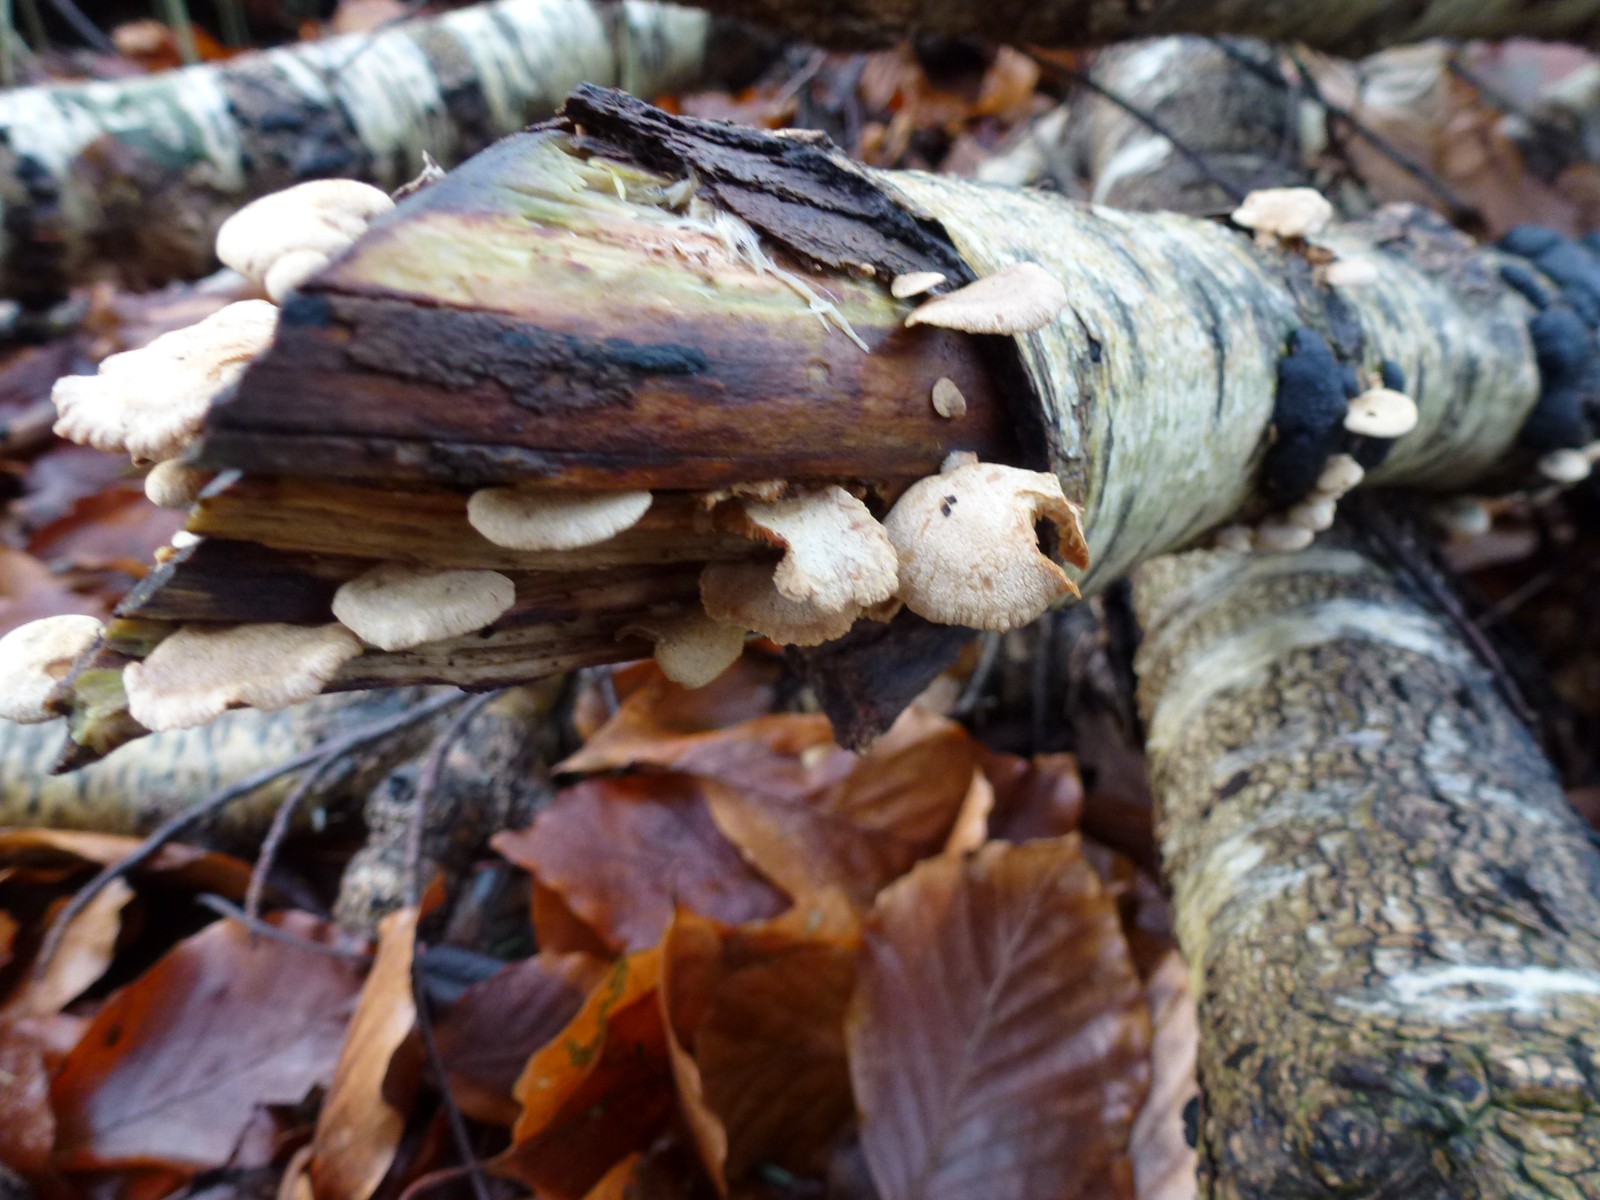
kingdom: Fungi
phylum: Basidiomycota
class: Agaricomycetes
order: Agaricales
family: Mycenaceae
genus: Panellus
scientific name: Panellus stipticus
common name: kliddet epaulethat
